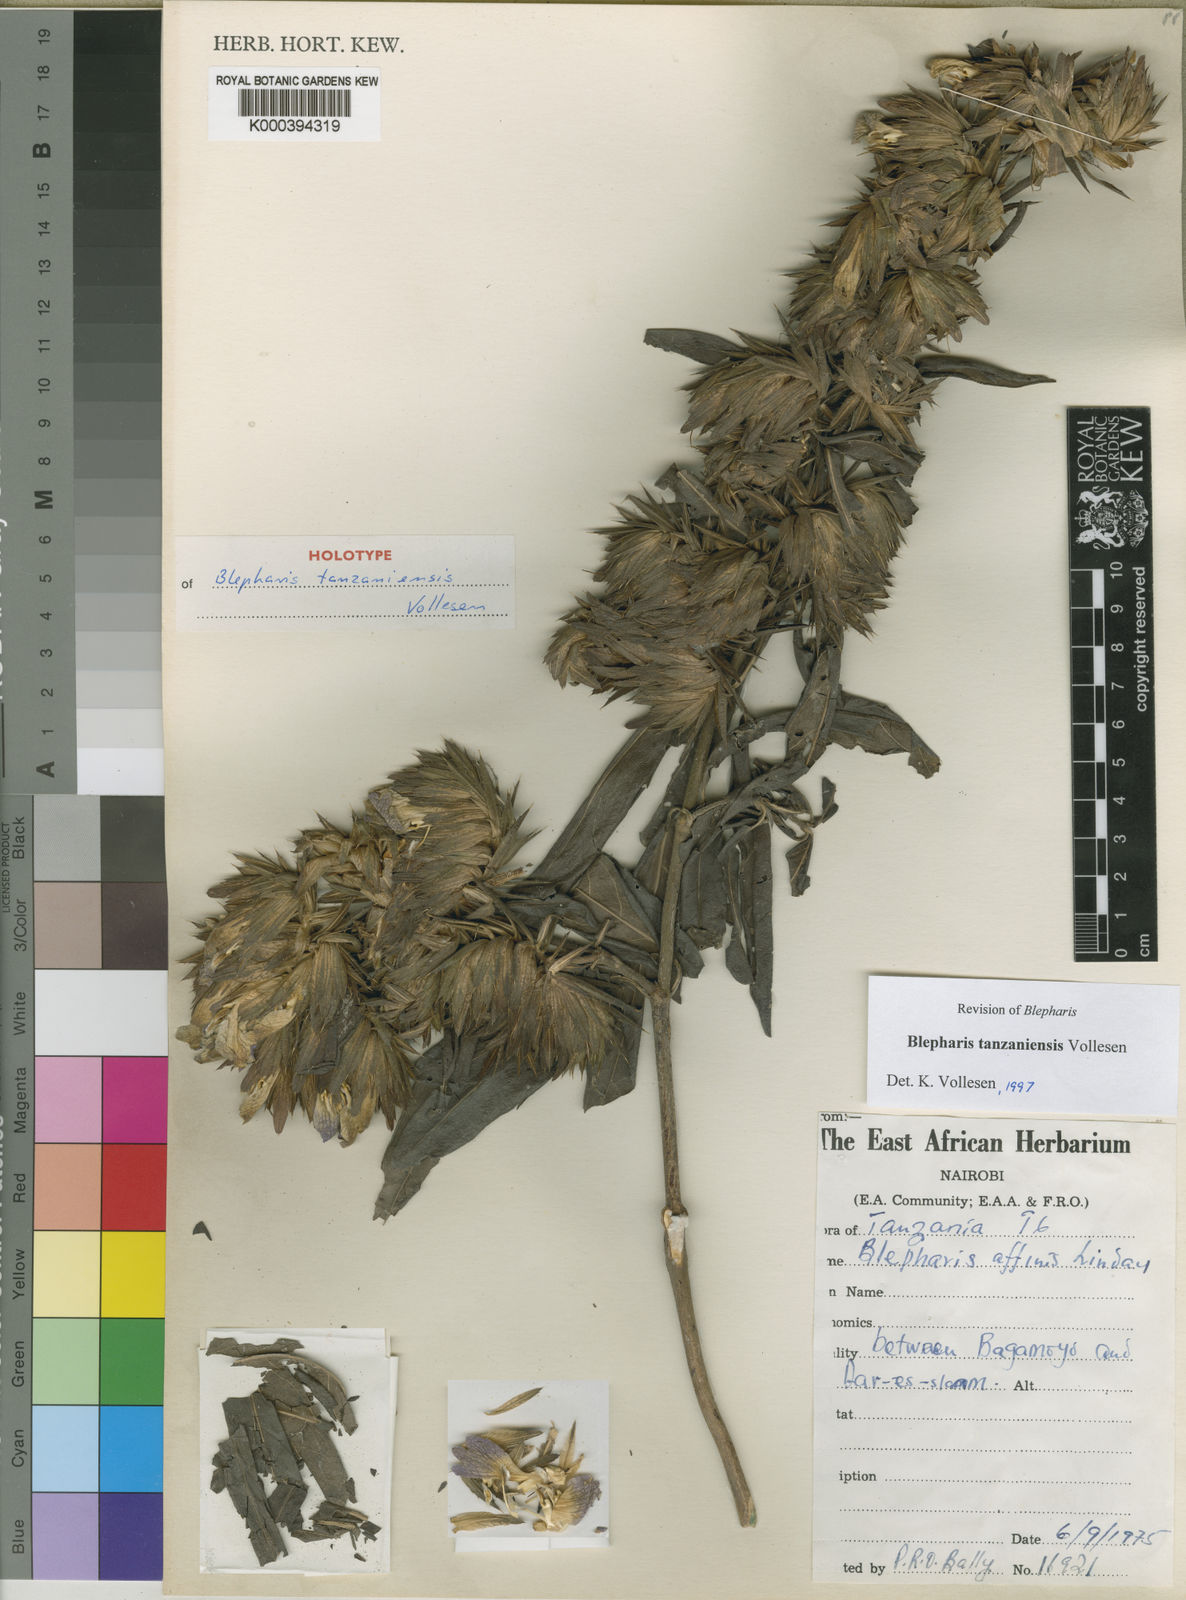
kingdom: Plantae
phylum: Tracheophyta
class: Magnoliopsida
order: Lamiales
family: Acanthaceae
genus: Blepharis
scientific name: Blepharis tanzaniensis
